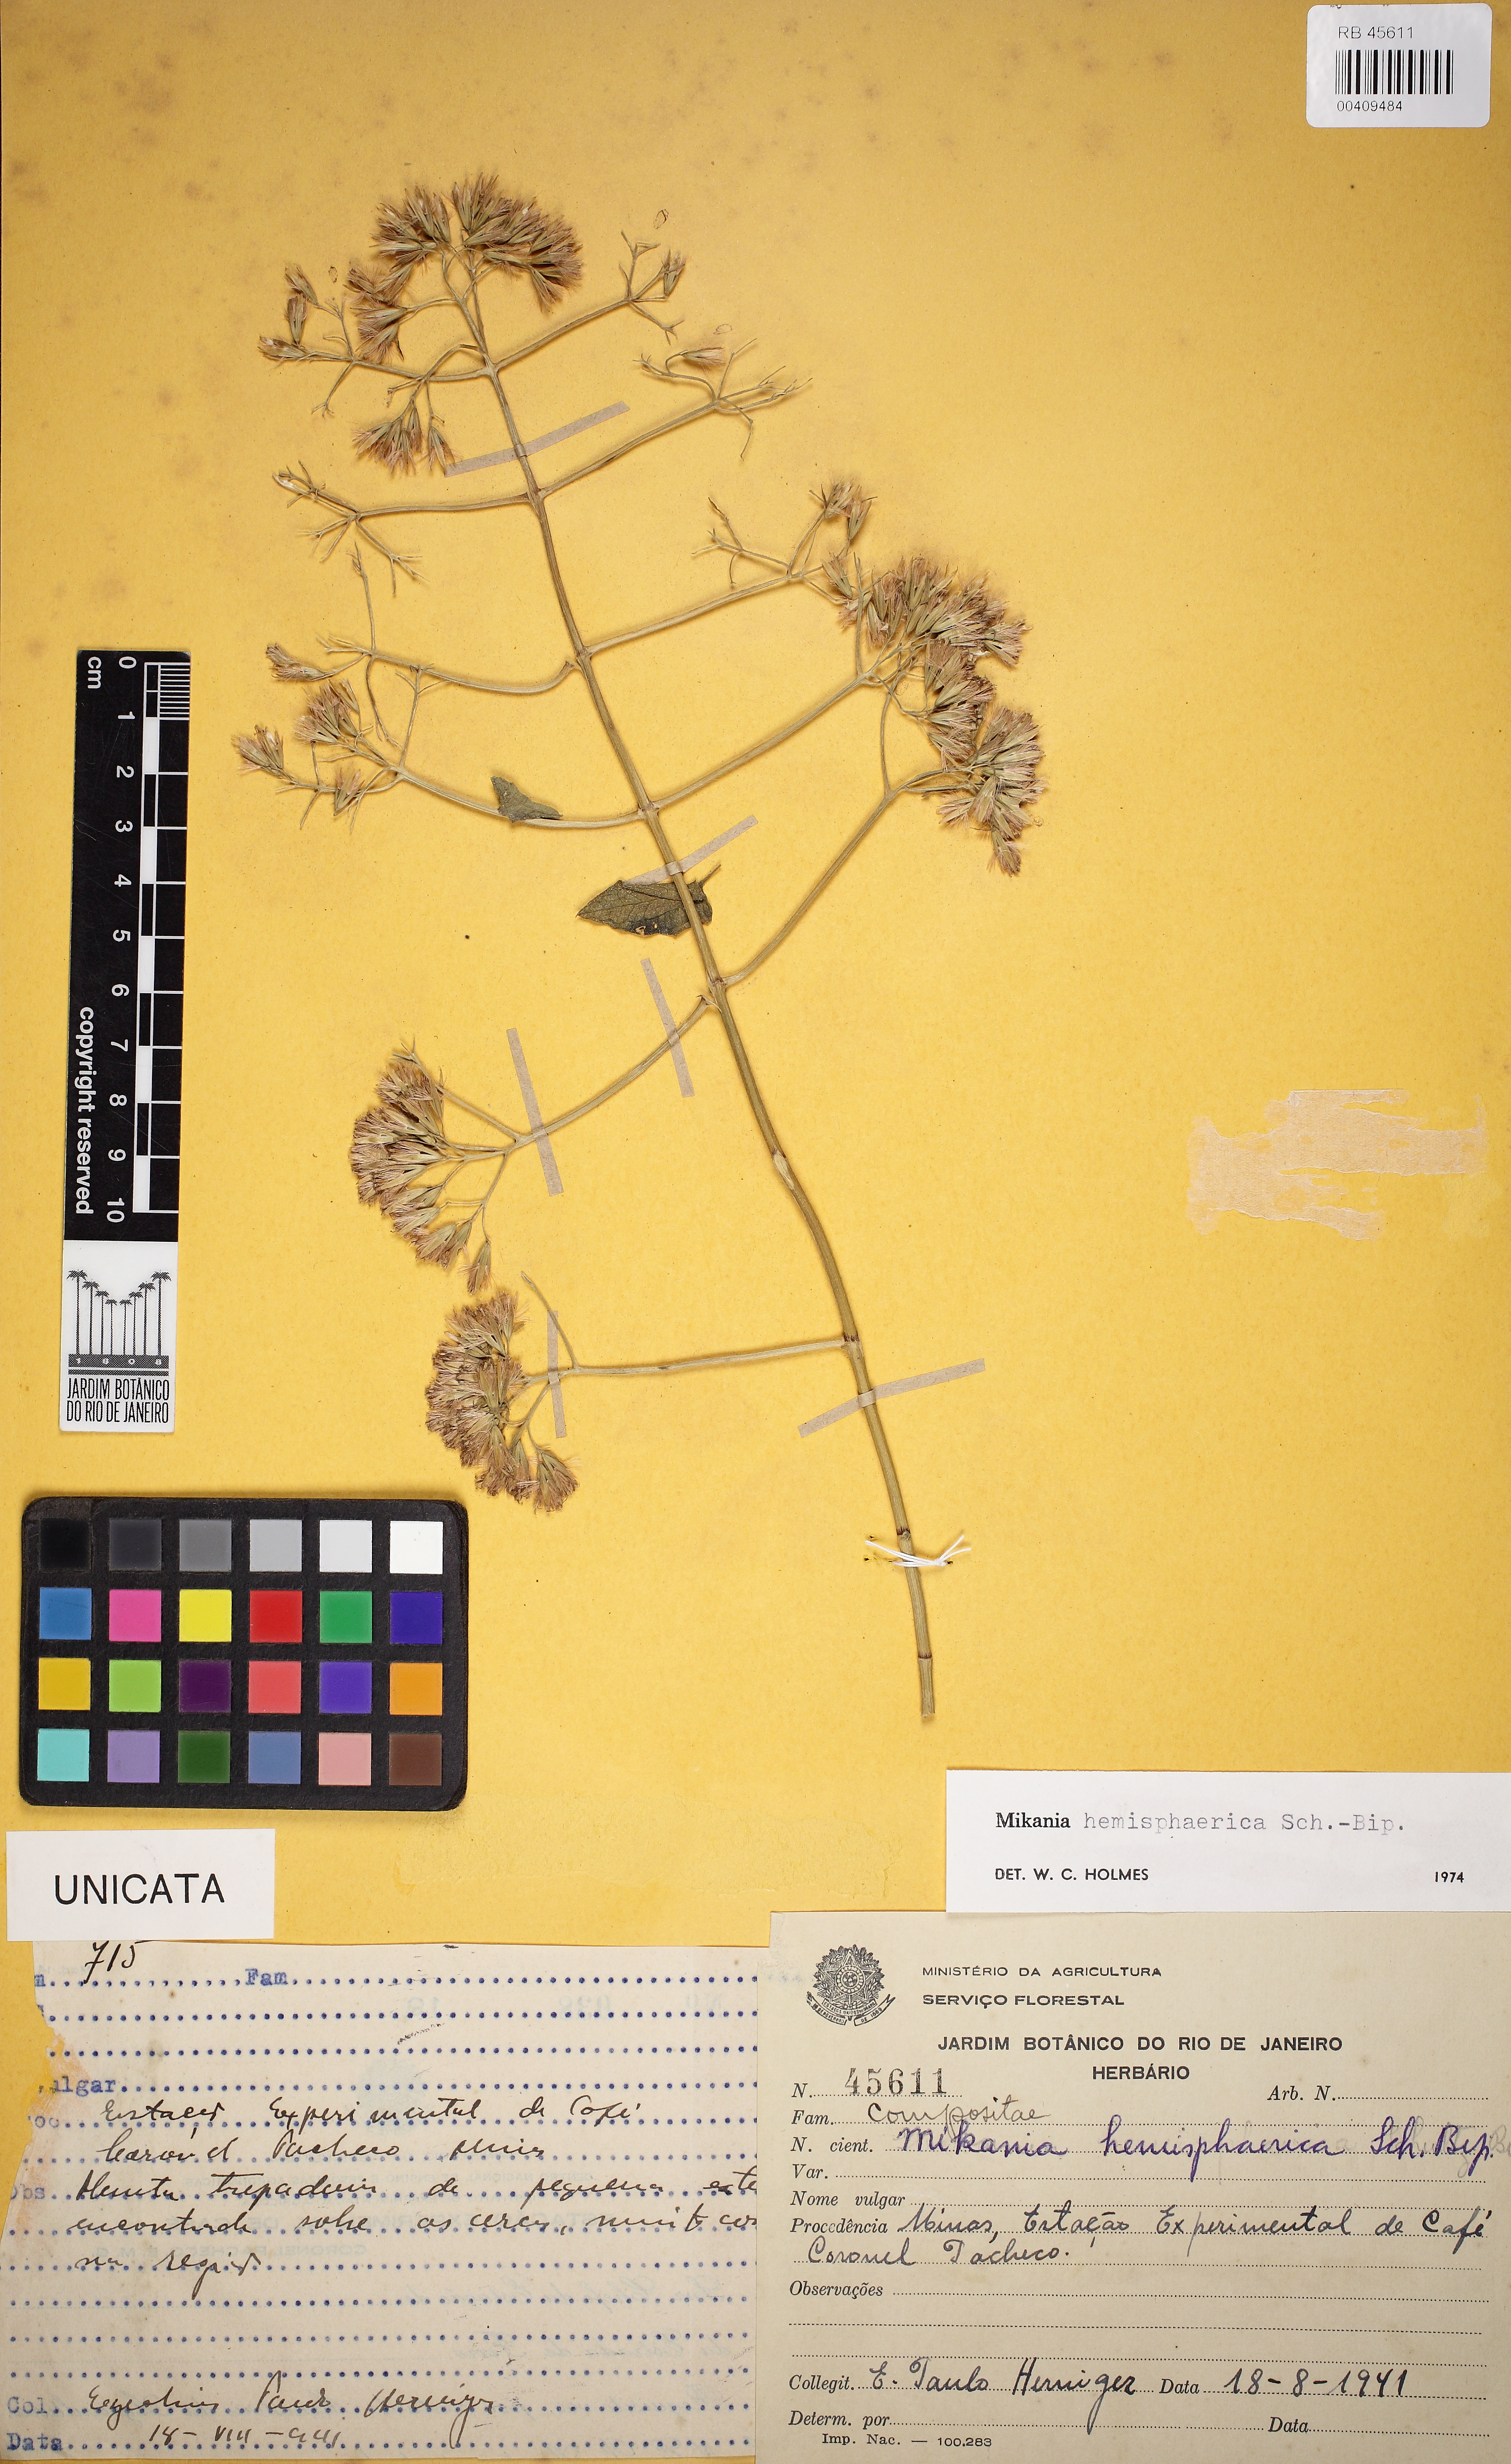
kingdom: Plantae
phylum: Tracheophyta
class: Magnoliopsida
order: Asterales
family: Asteraceae
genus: Mikania
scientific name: Mikania hemisphaerica
